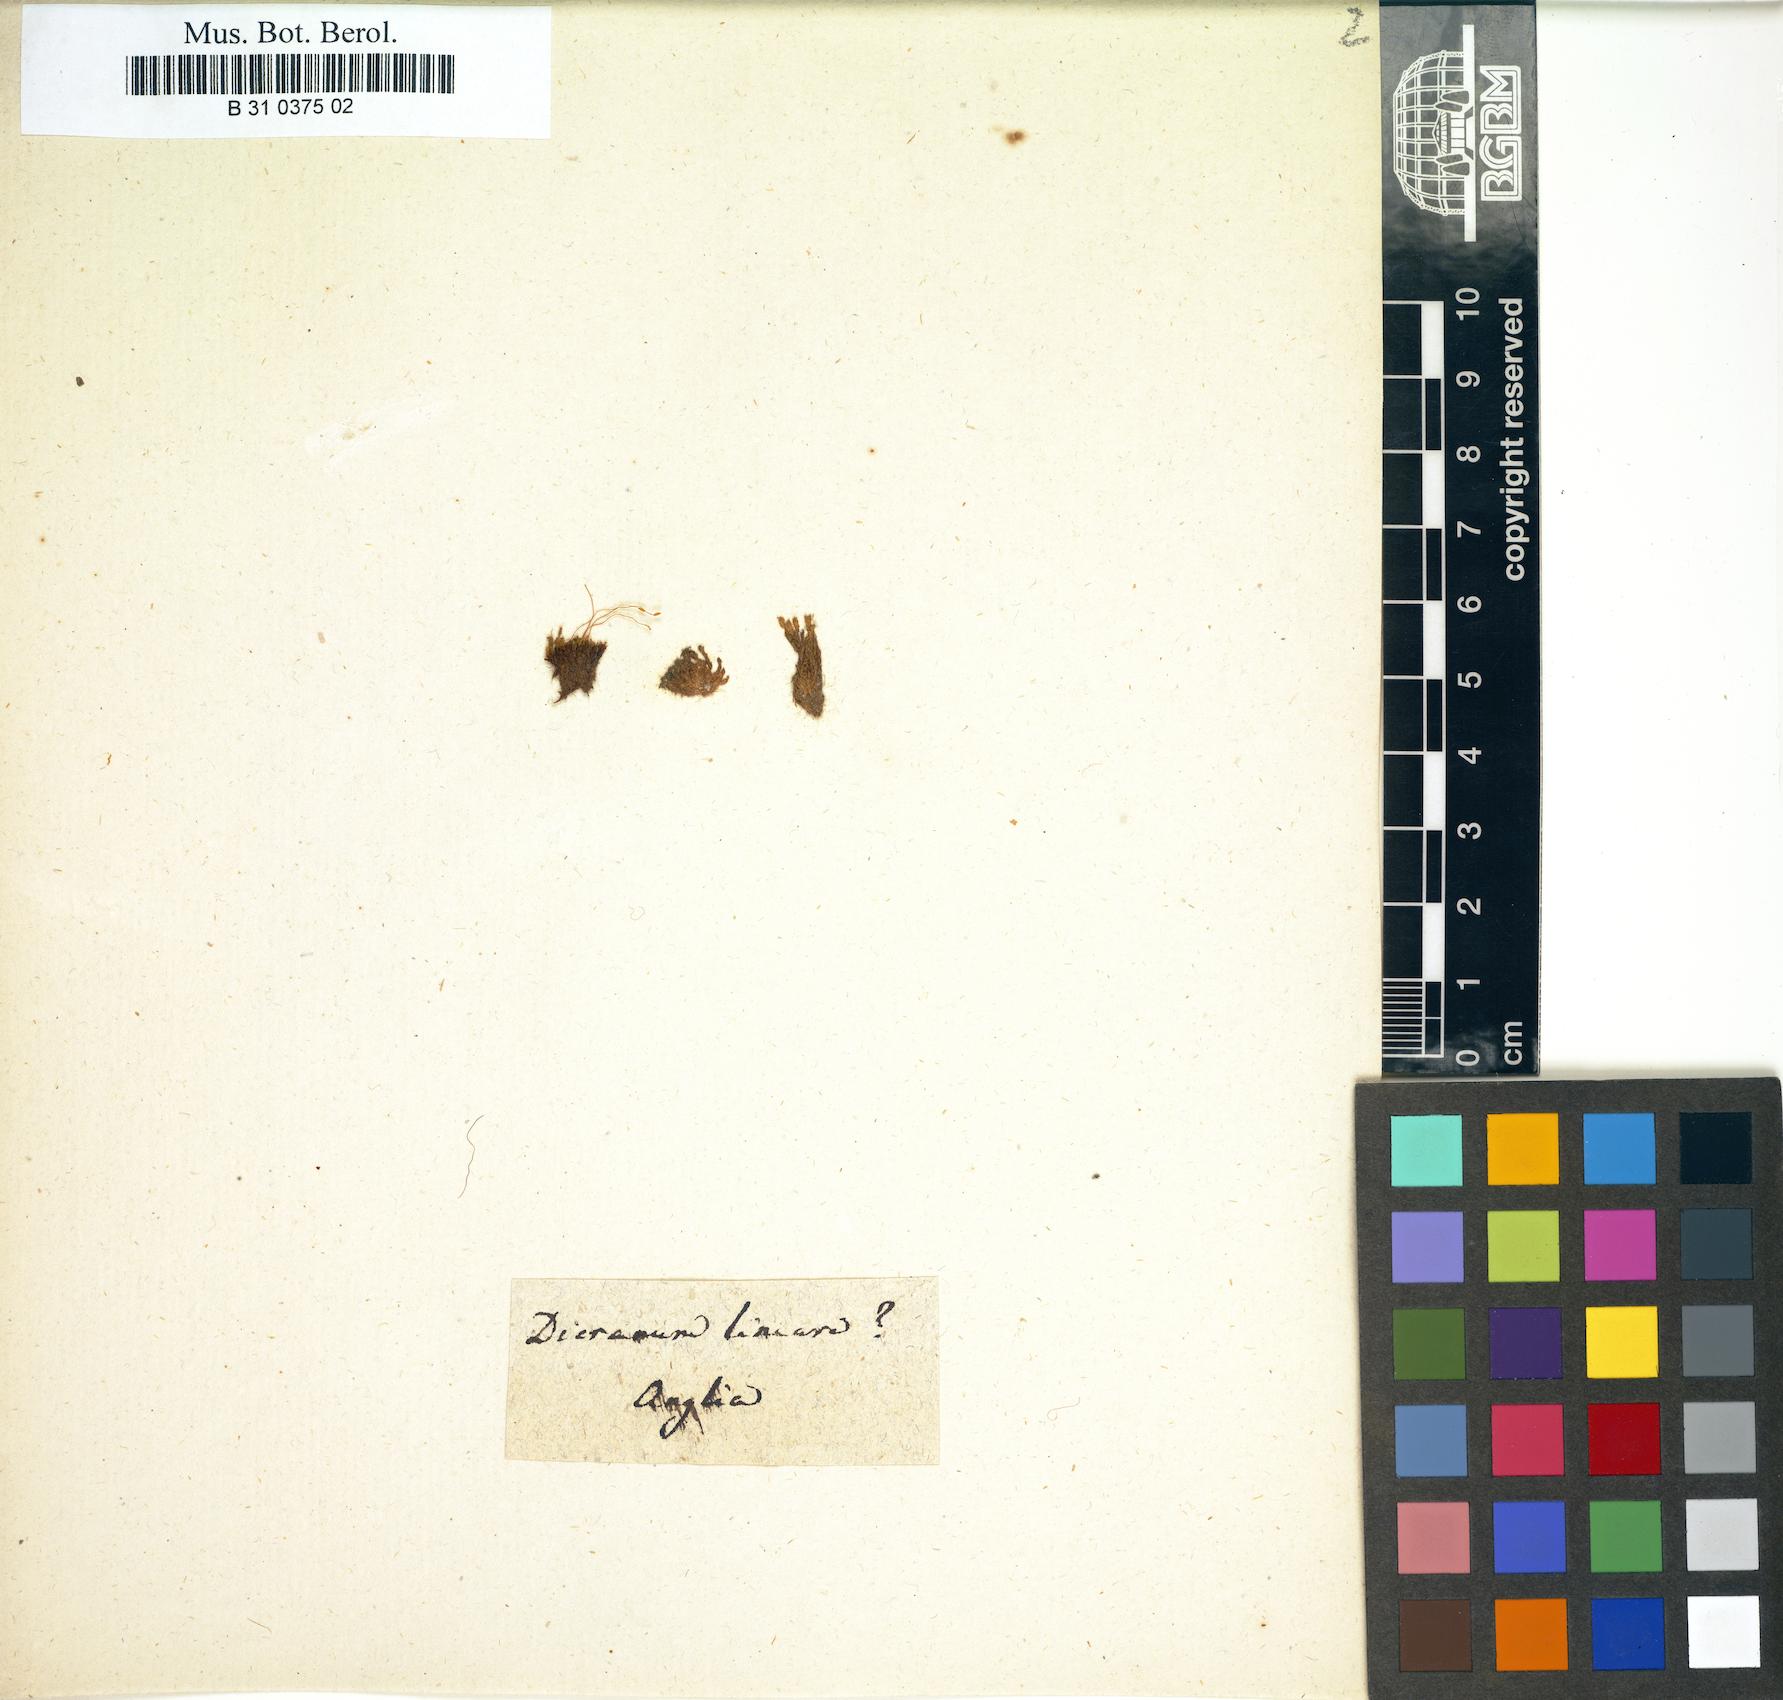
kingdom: Plantae
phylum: Bryophyta
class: Bryopsida
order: Pottiales
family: Pottiaceae
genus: Geheebia
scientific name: Geheebia tophacea
